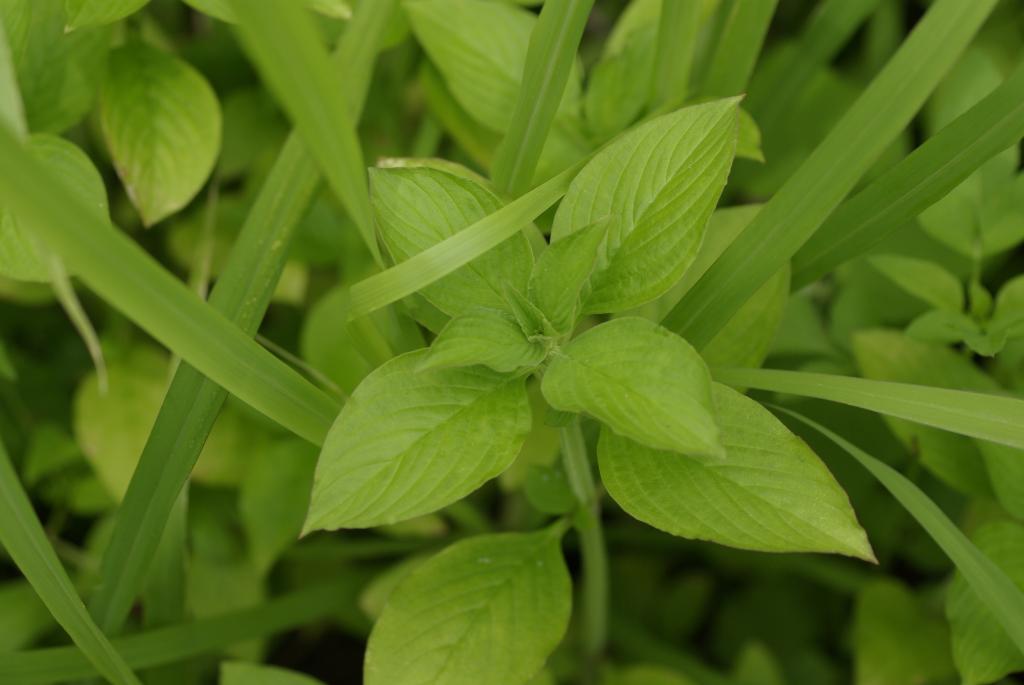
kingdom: Plantae
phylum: Tracheophyta
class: Magnoliopsida
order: Gentianales
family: Rubiaceae
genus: Spermacoce
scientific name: Spermacoce latifolia
